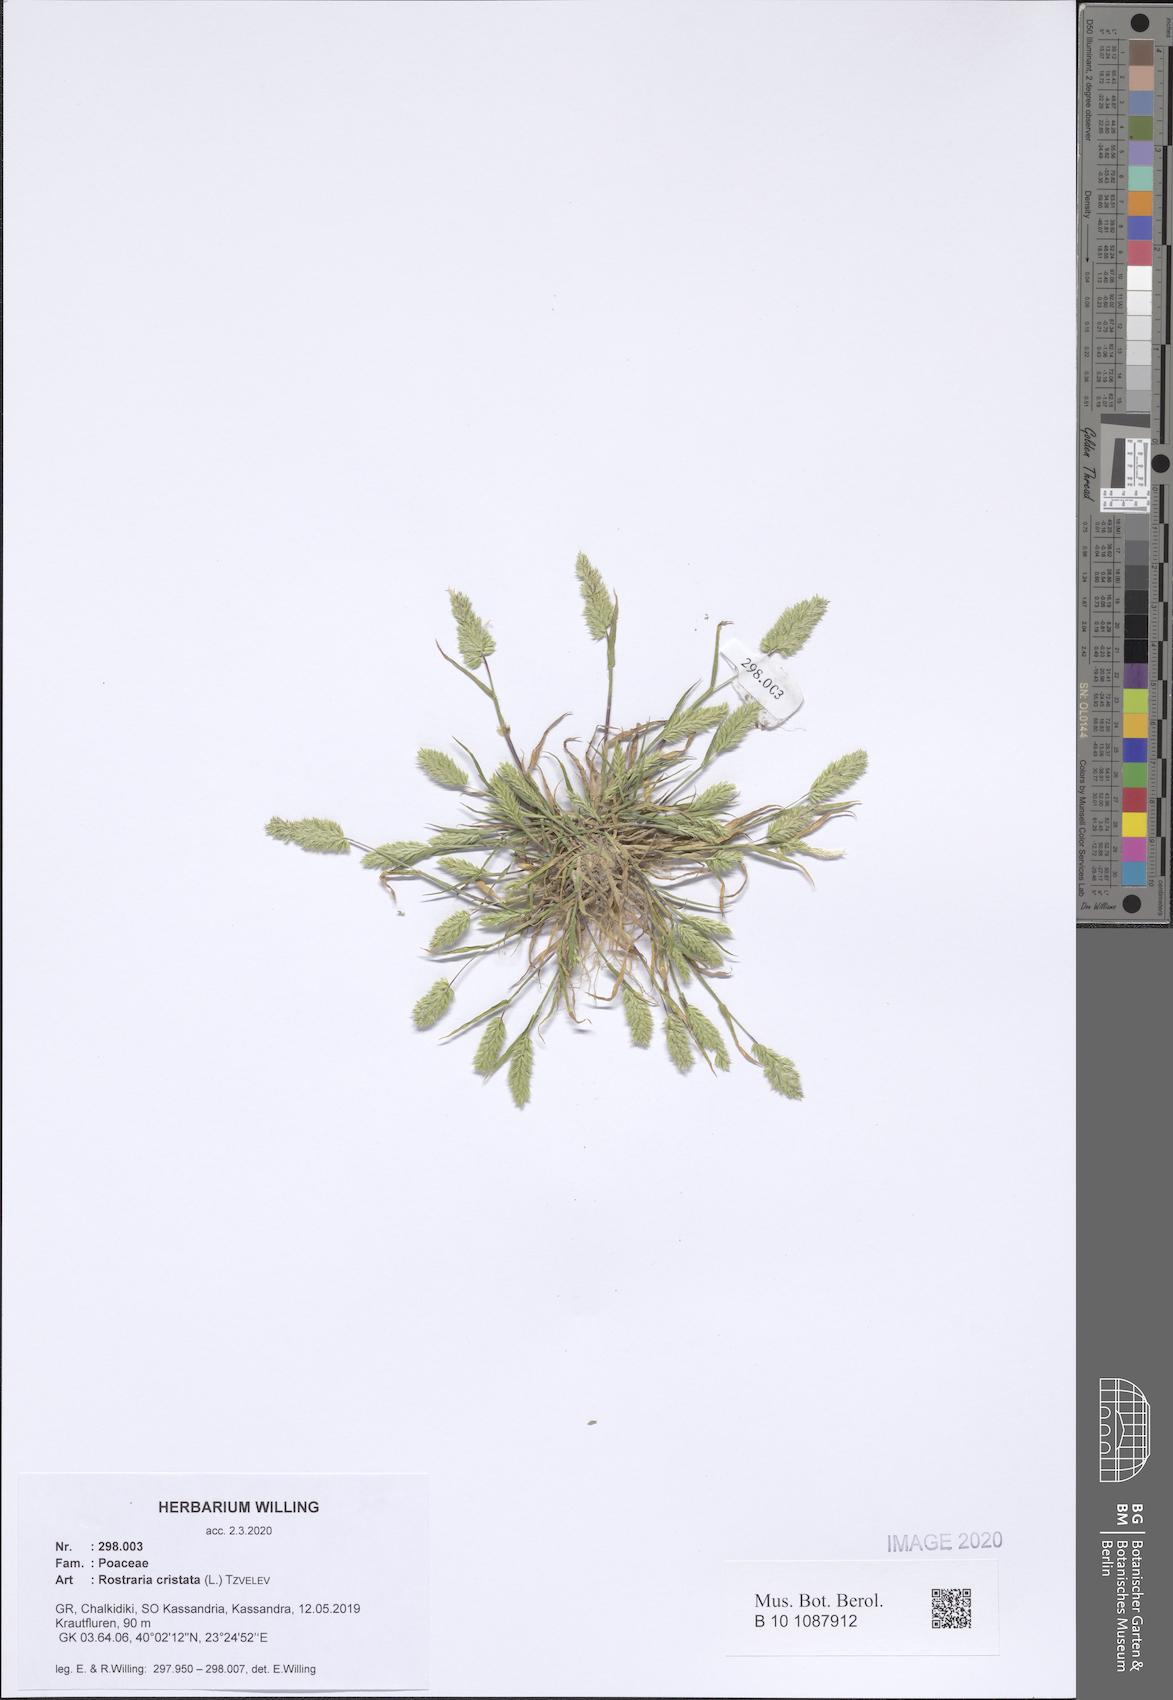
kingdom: Plantae
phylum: Tracheophyta
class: Liliopsida
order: Poales
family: Poaceae
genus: Rostraria
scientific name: Rostraria cristata
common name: Mediterranean hair-grass
